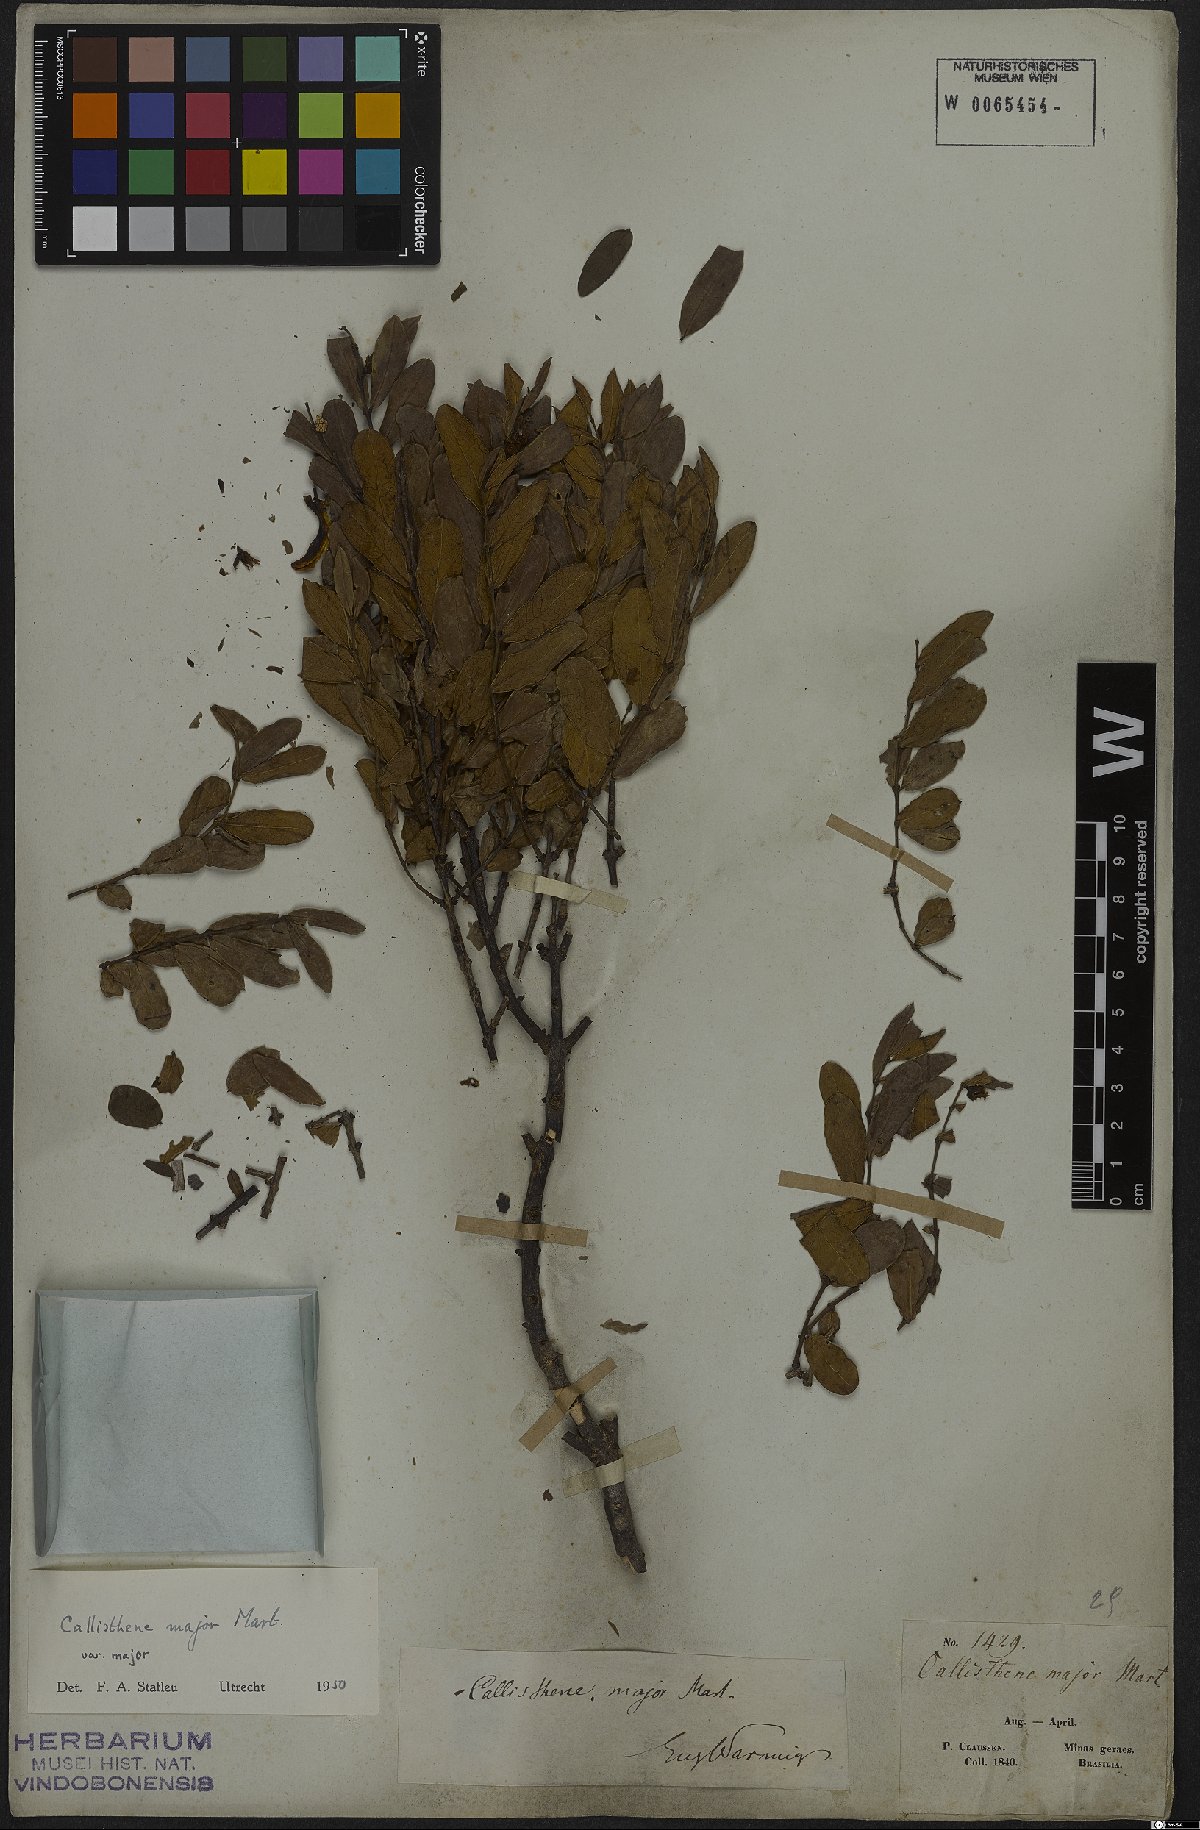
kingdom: Plantae
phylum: Tracheophyta
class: Magnoliopsida
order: Myrtales
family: Vochysiaceae
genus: Callisthene
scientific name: Callisthene major
